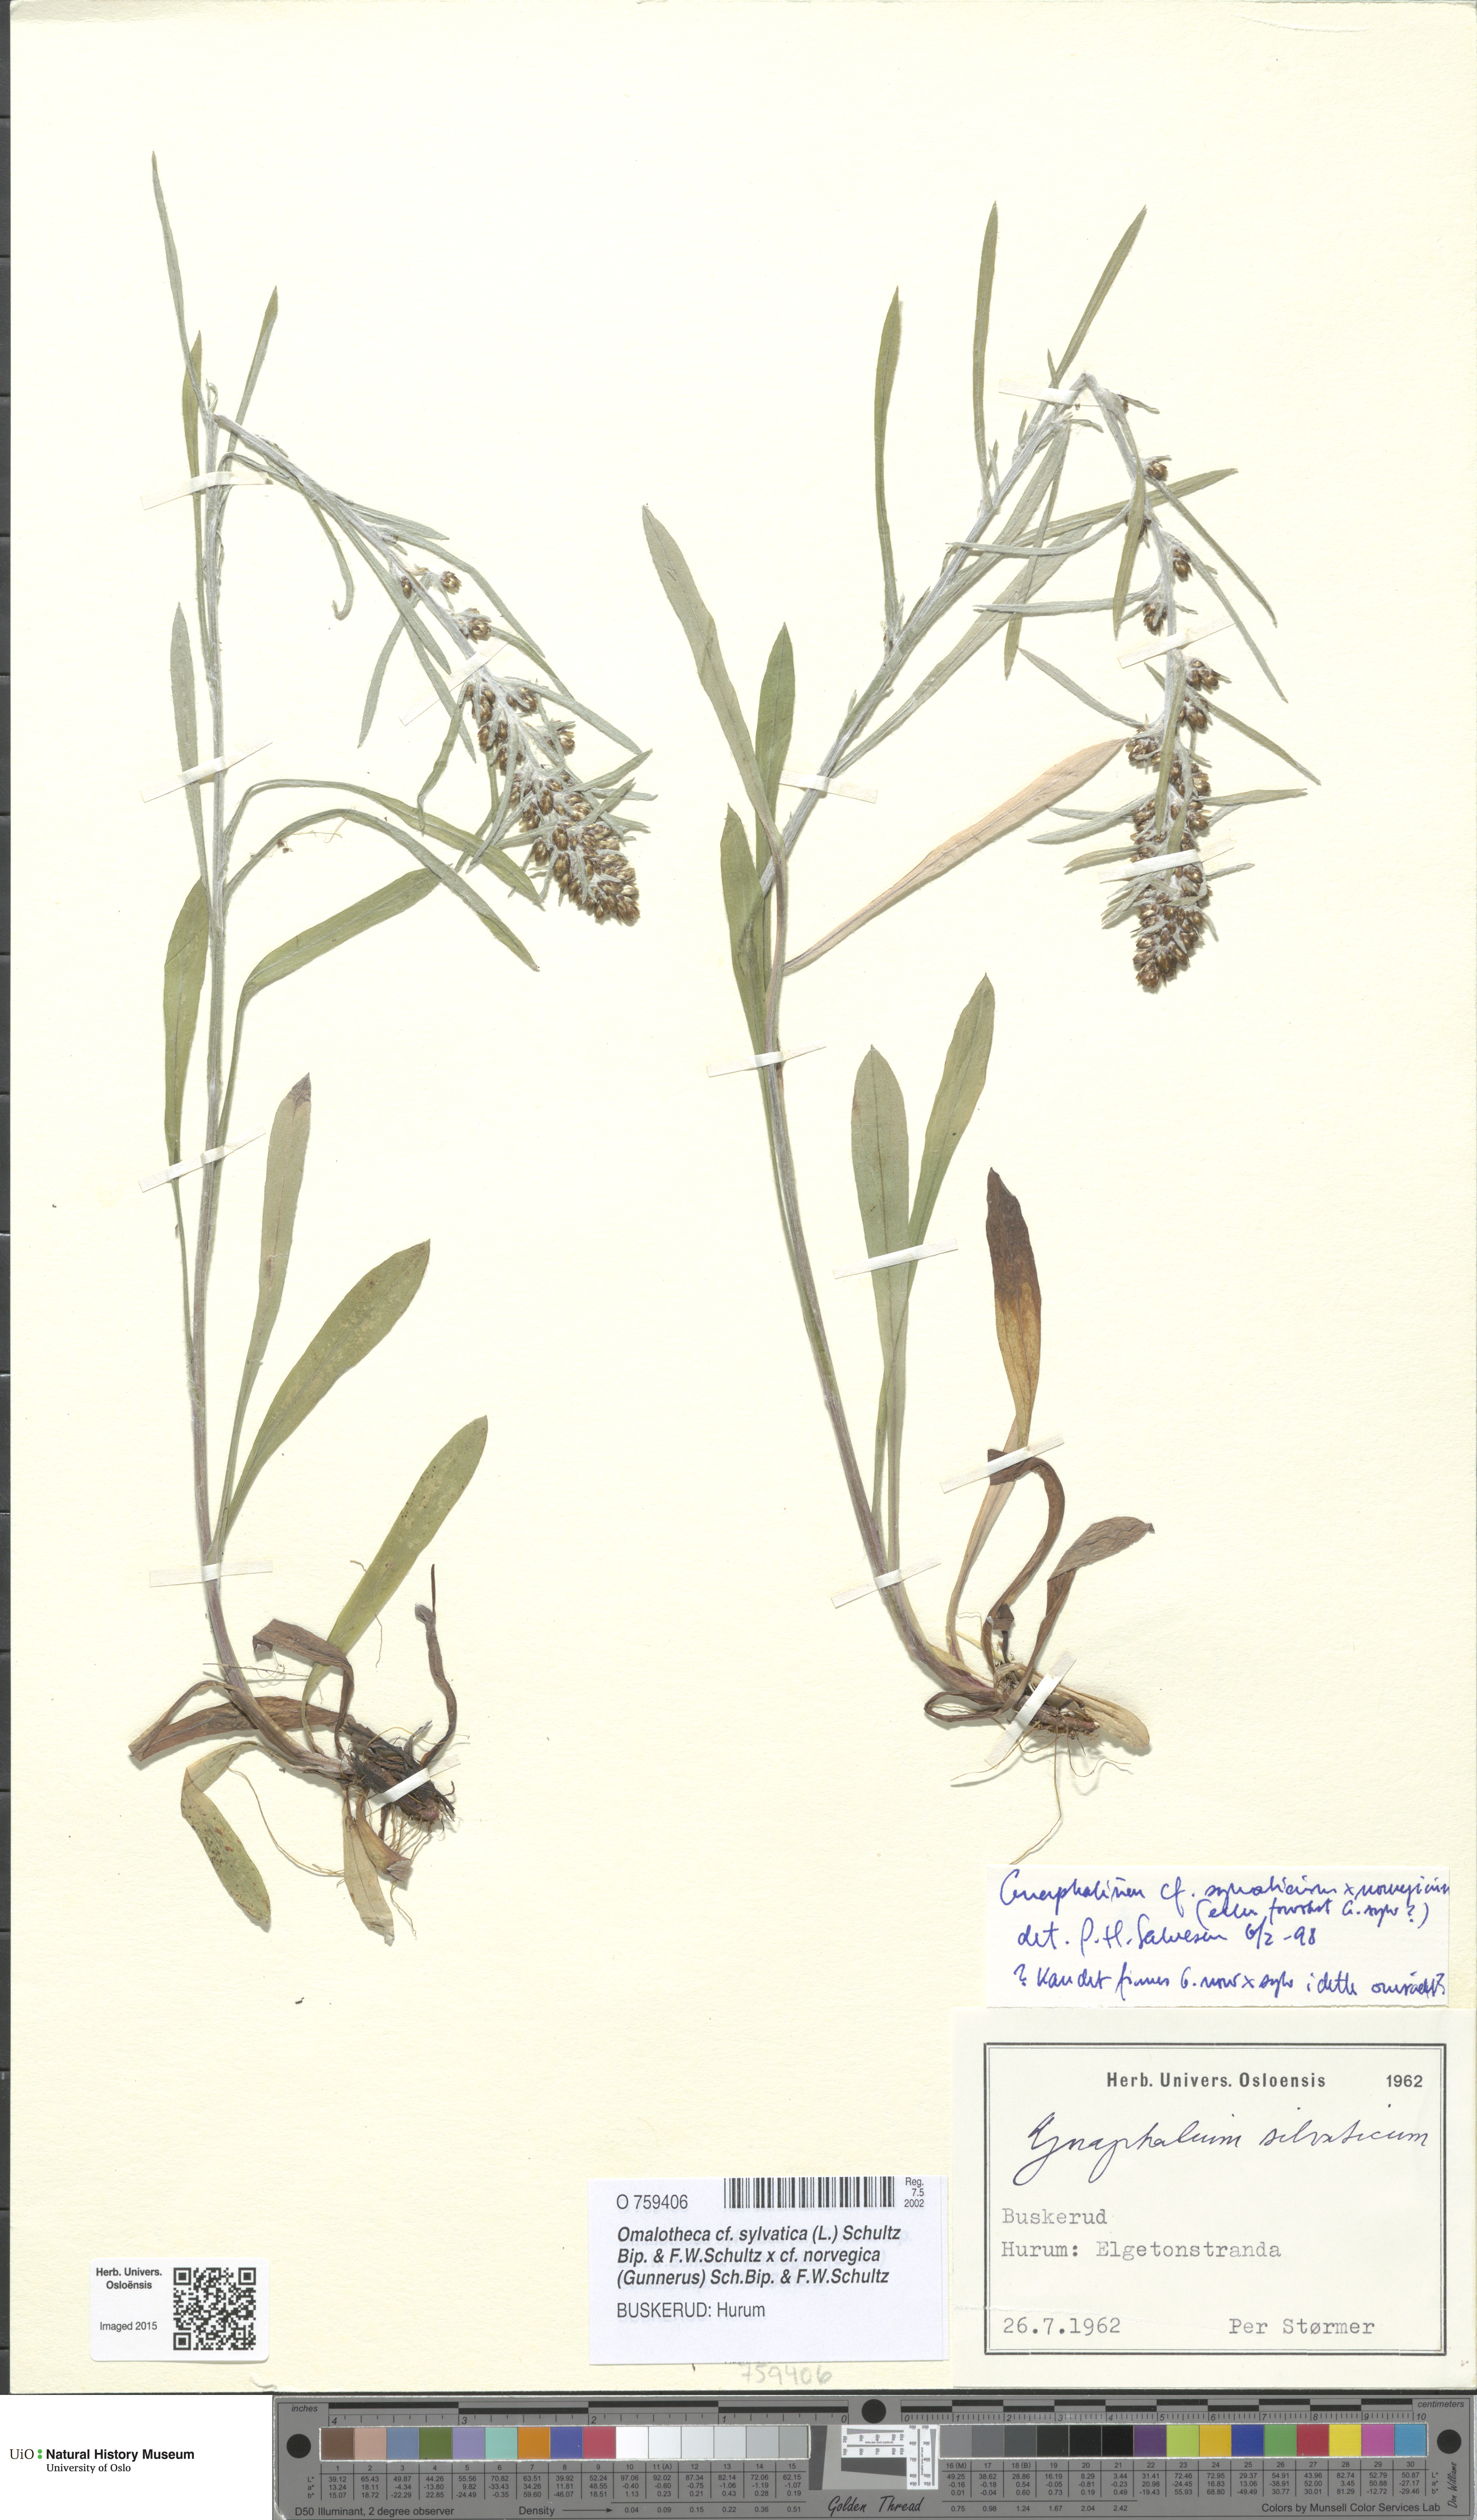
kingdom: Plantae
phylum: Tracheophyta
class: Magnoliopsida
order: Asterales
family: Asteraceae
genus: Omalotheca
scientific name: Omalotheca
